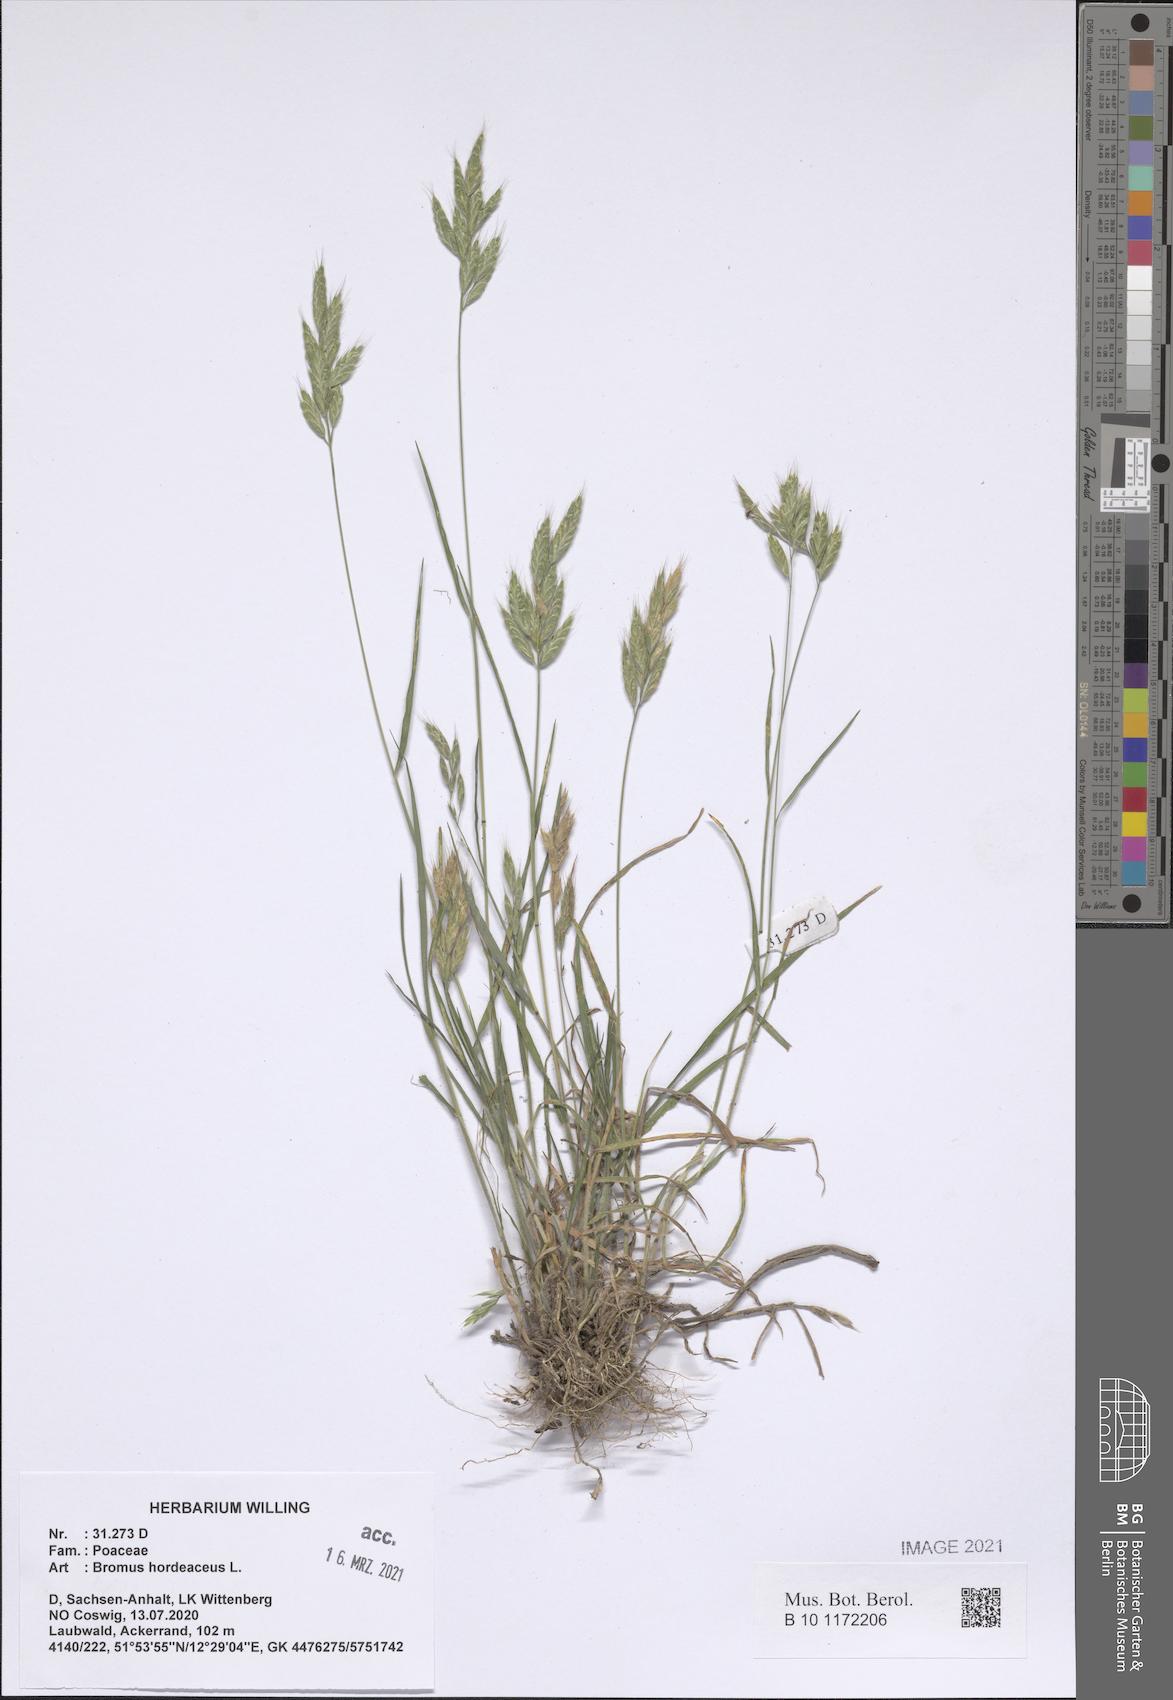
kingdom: Plantae
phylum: Tracheophyta
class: Liliopsida
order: Poales
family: Poaceae
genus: Bromus
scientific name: Bromus hordeaceus
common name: Soft brome
